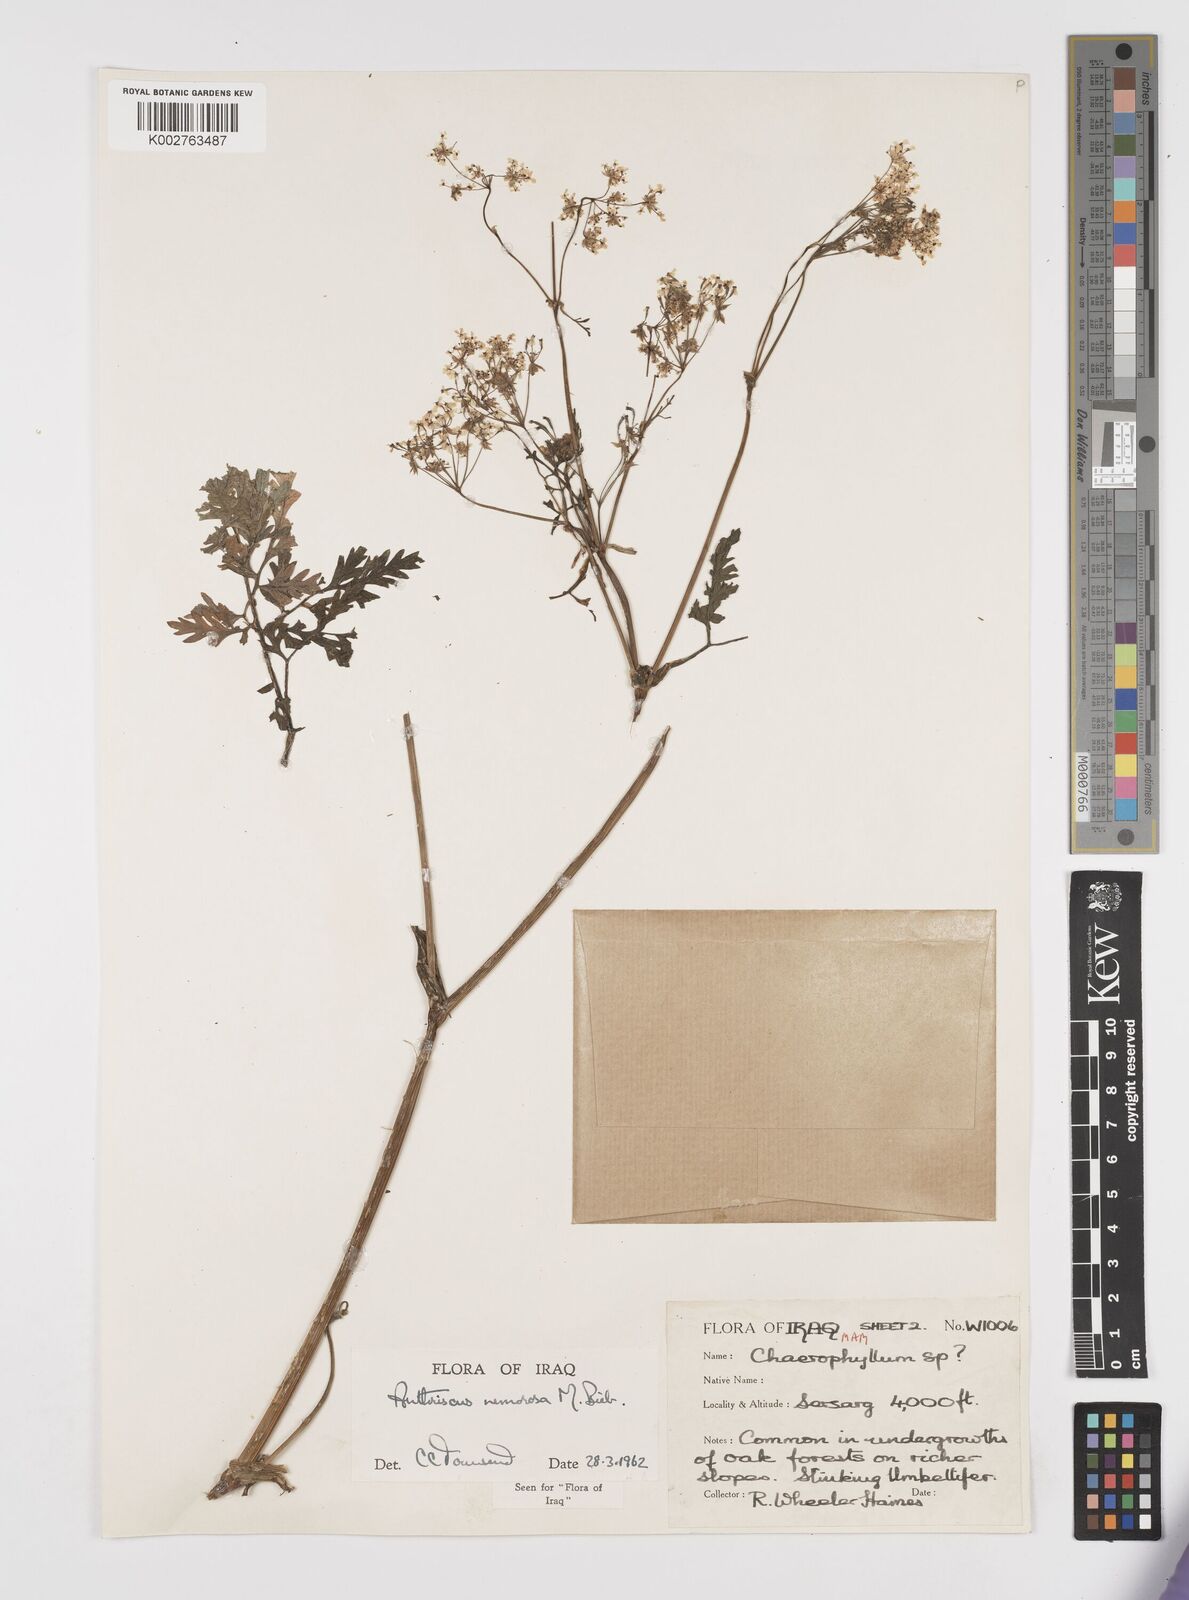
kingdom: Plantae
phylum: Tracheophyta
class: Magnoliopsida
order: Apiales
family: Apiaceae
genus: Anthriscus
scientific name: Anthriscus sylvestris
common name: Cow parsley
